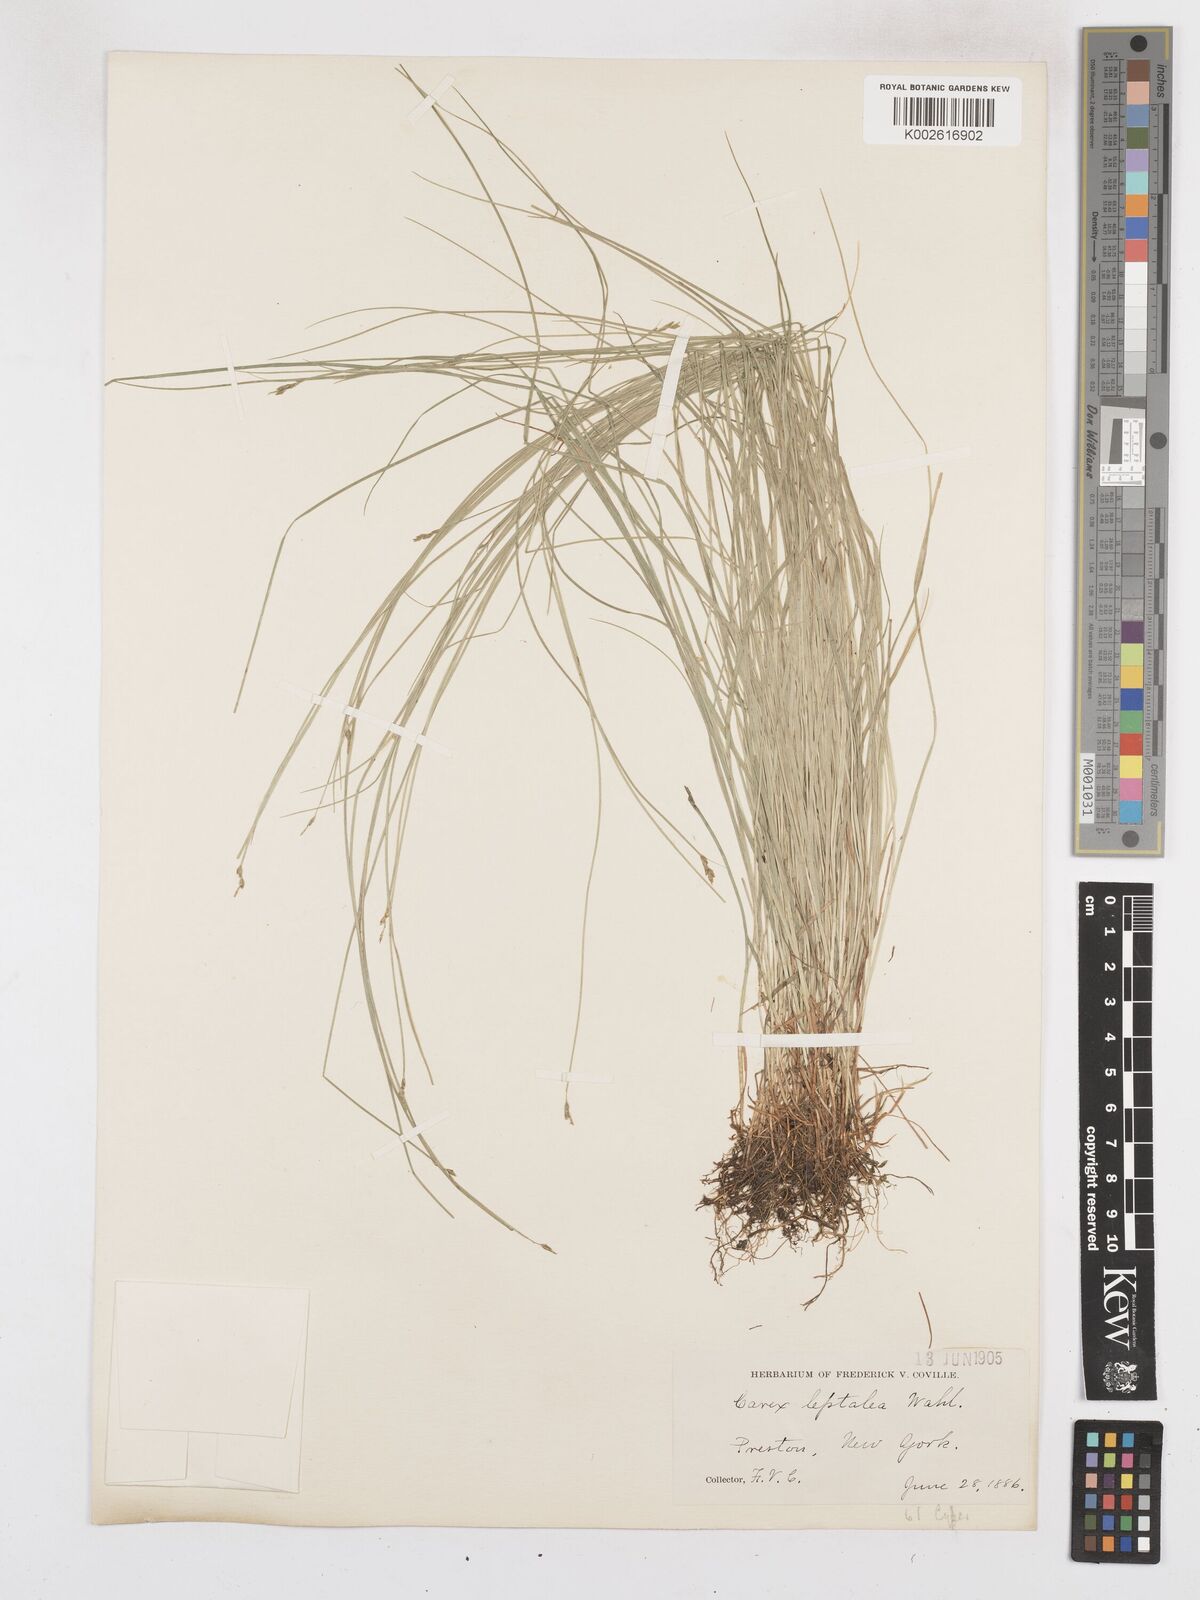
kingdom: Plantae
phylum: Tracheophyta
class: Liliopsida
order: Poales
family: Cyperaceae
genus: Carex
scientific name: Carex leptalea
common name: Bristly-stalked sedge
